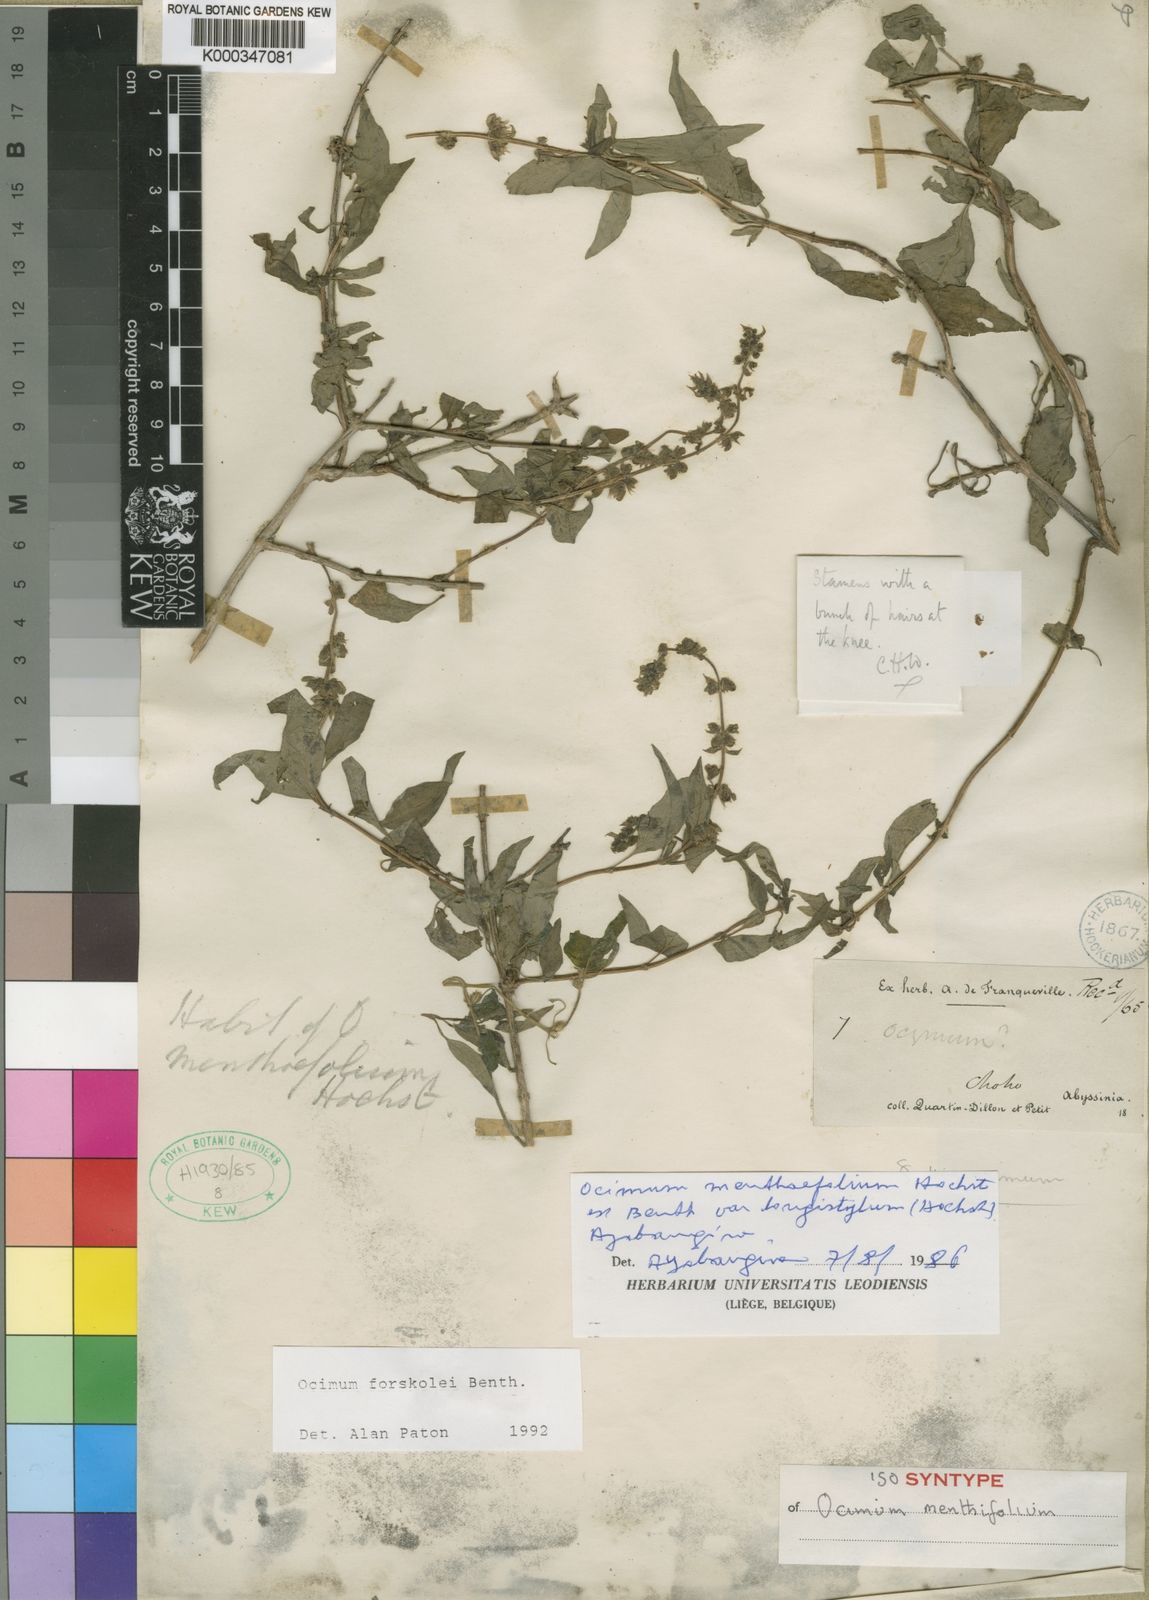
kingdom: Plantae
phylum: Tracheophyta
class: Magnoliopsida
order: Lamiales
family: Lamiaceae
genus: Ocimum
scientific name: Ocimum
